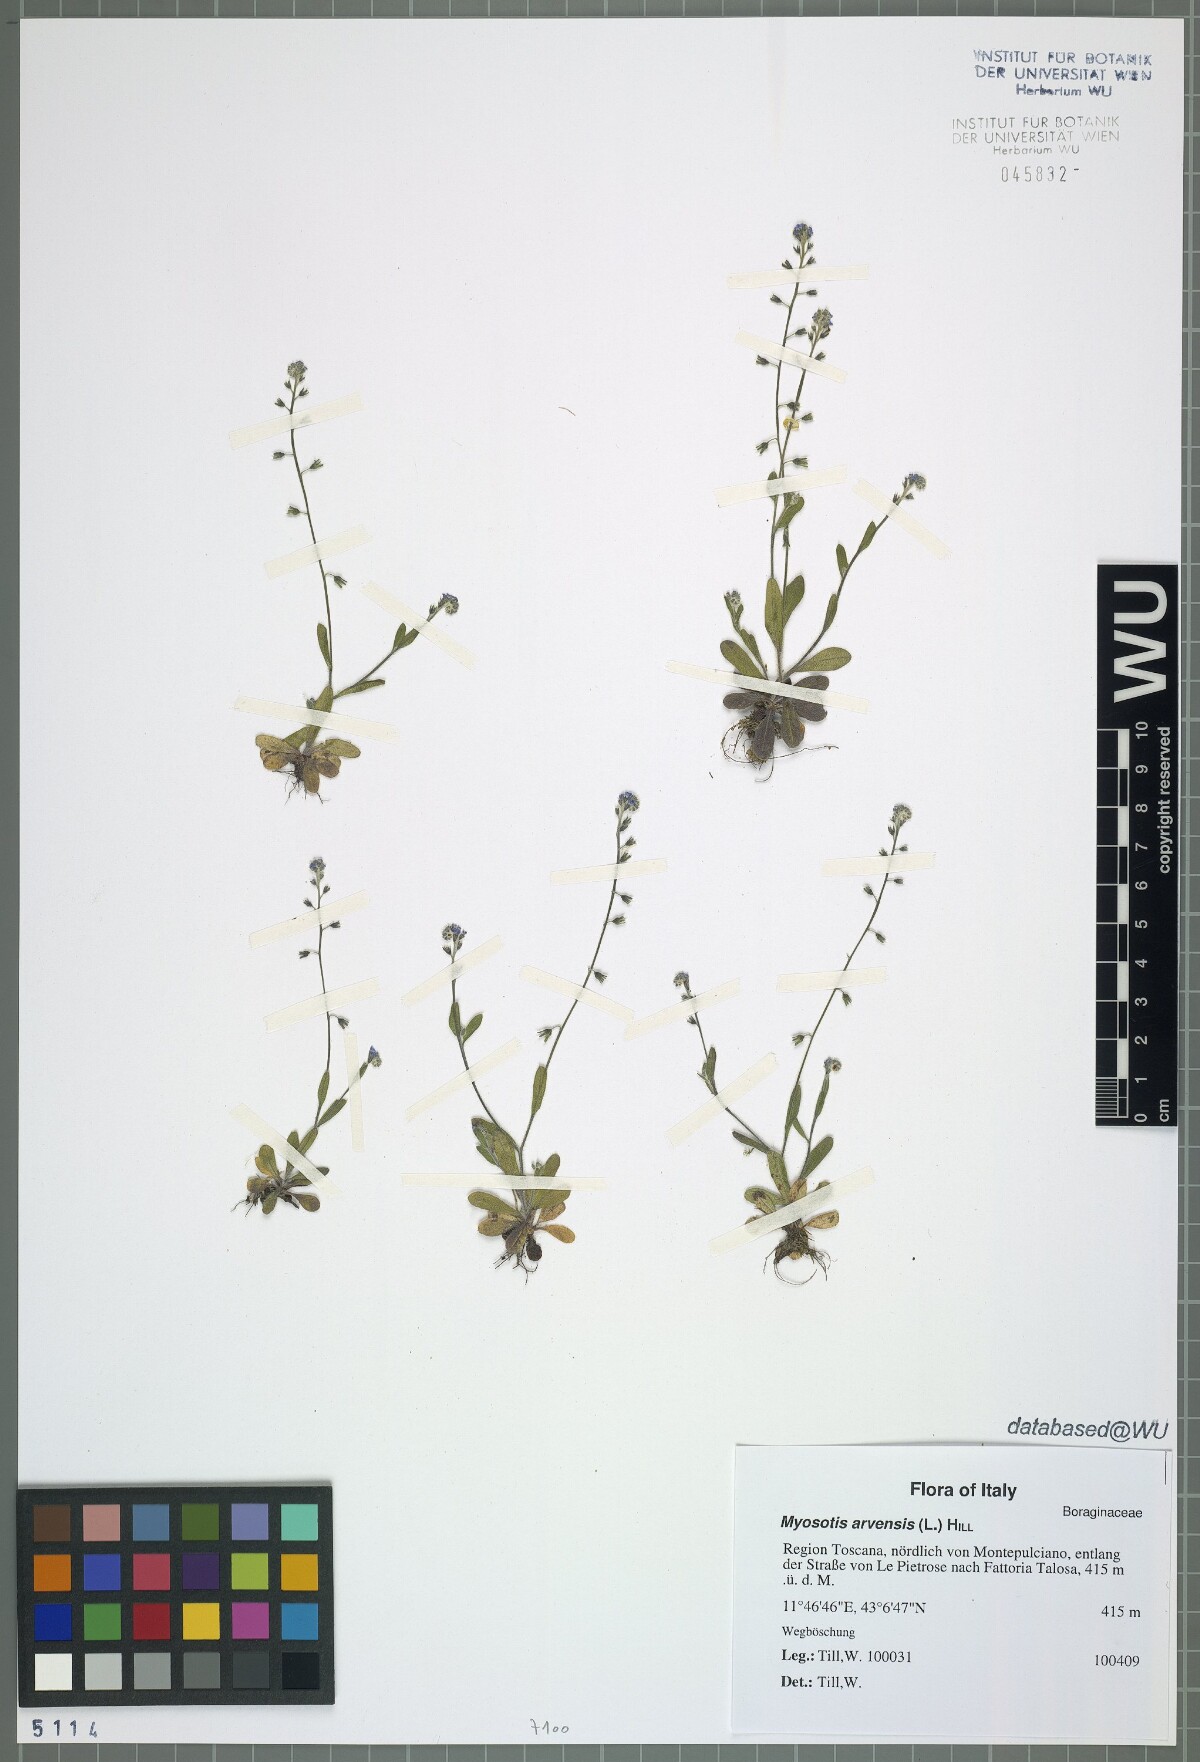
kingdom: Plantae
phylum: Tracheophyta
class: Magnoliopsida
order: Boraginales
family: Boraginaceae
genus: Myosotis
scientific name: Myosotis arvensis
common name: Field forget-me-not
